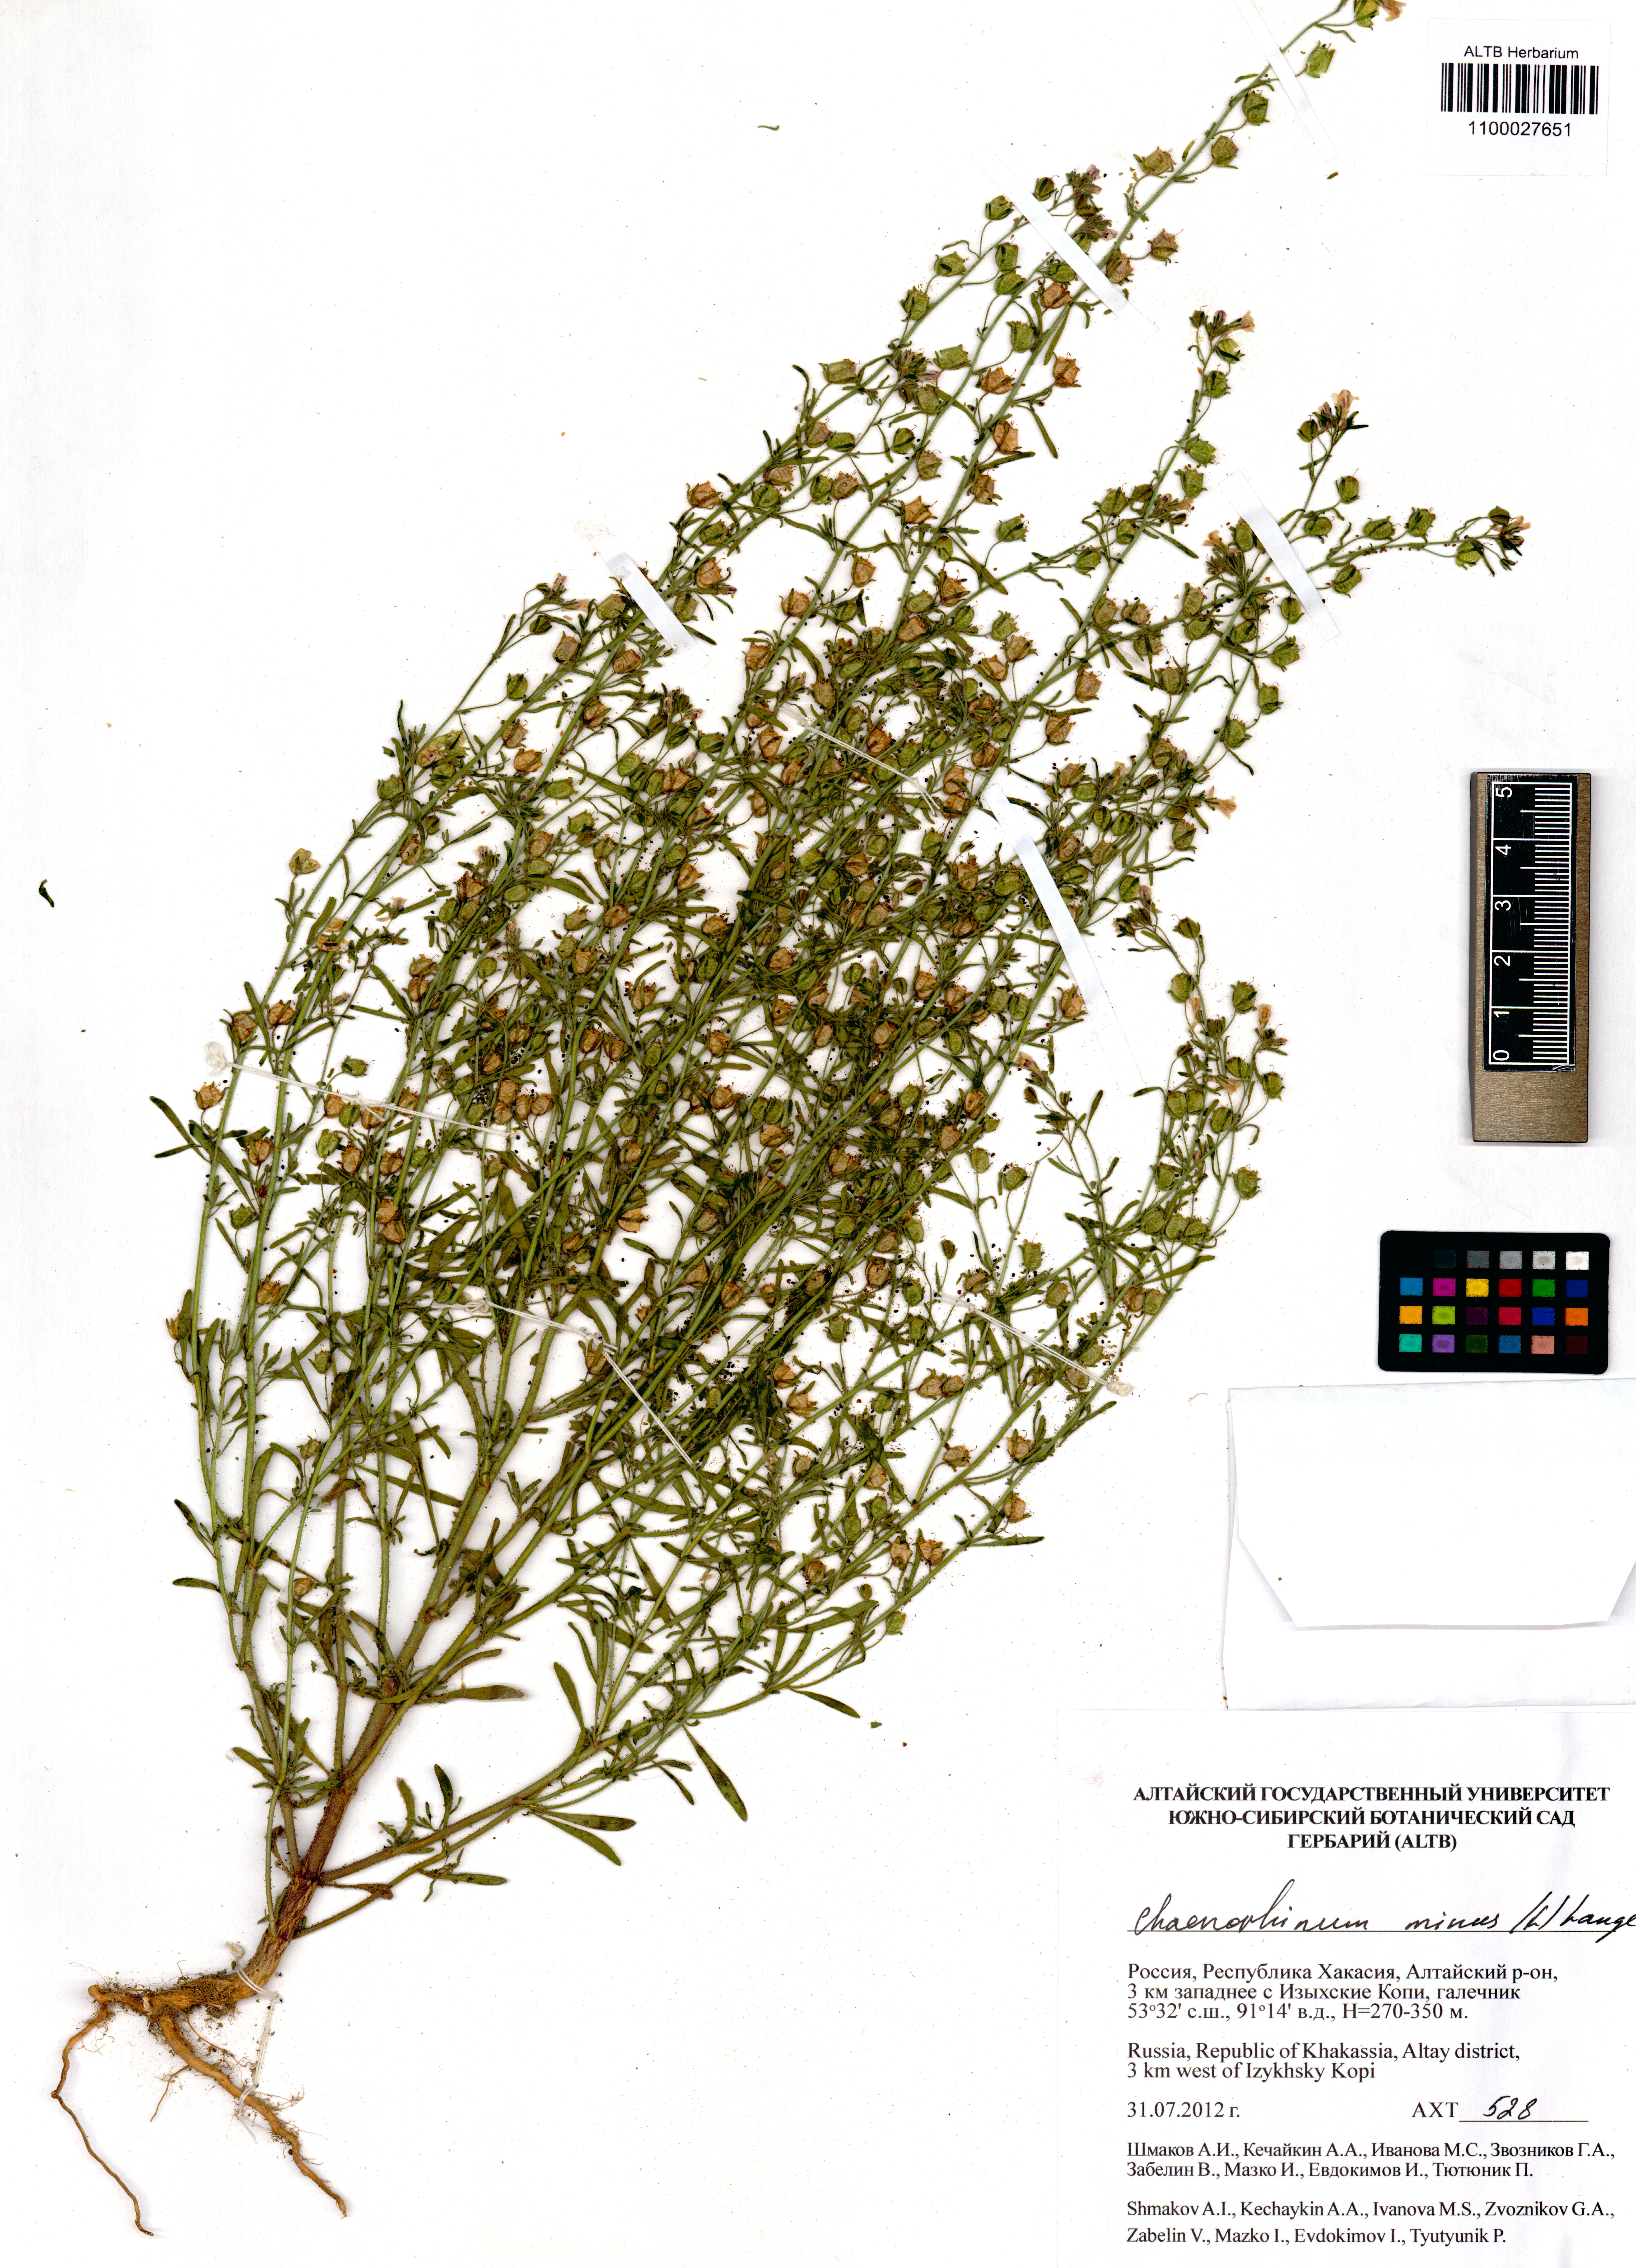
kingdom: Plantae
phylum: Tracheophyta
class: Magnoliopsida
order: Lamiales
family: Plantaginaceae
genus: Chaenorhinum
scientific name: Chaenorhinum minus
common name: Dwarf snapdragon
